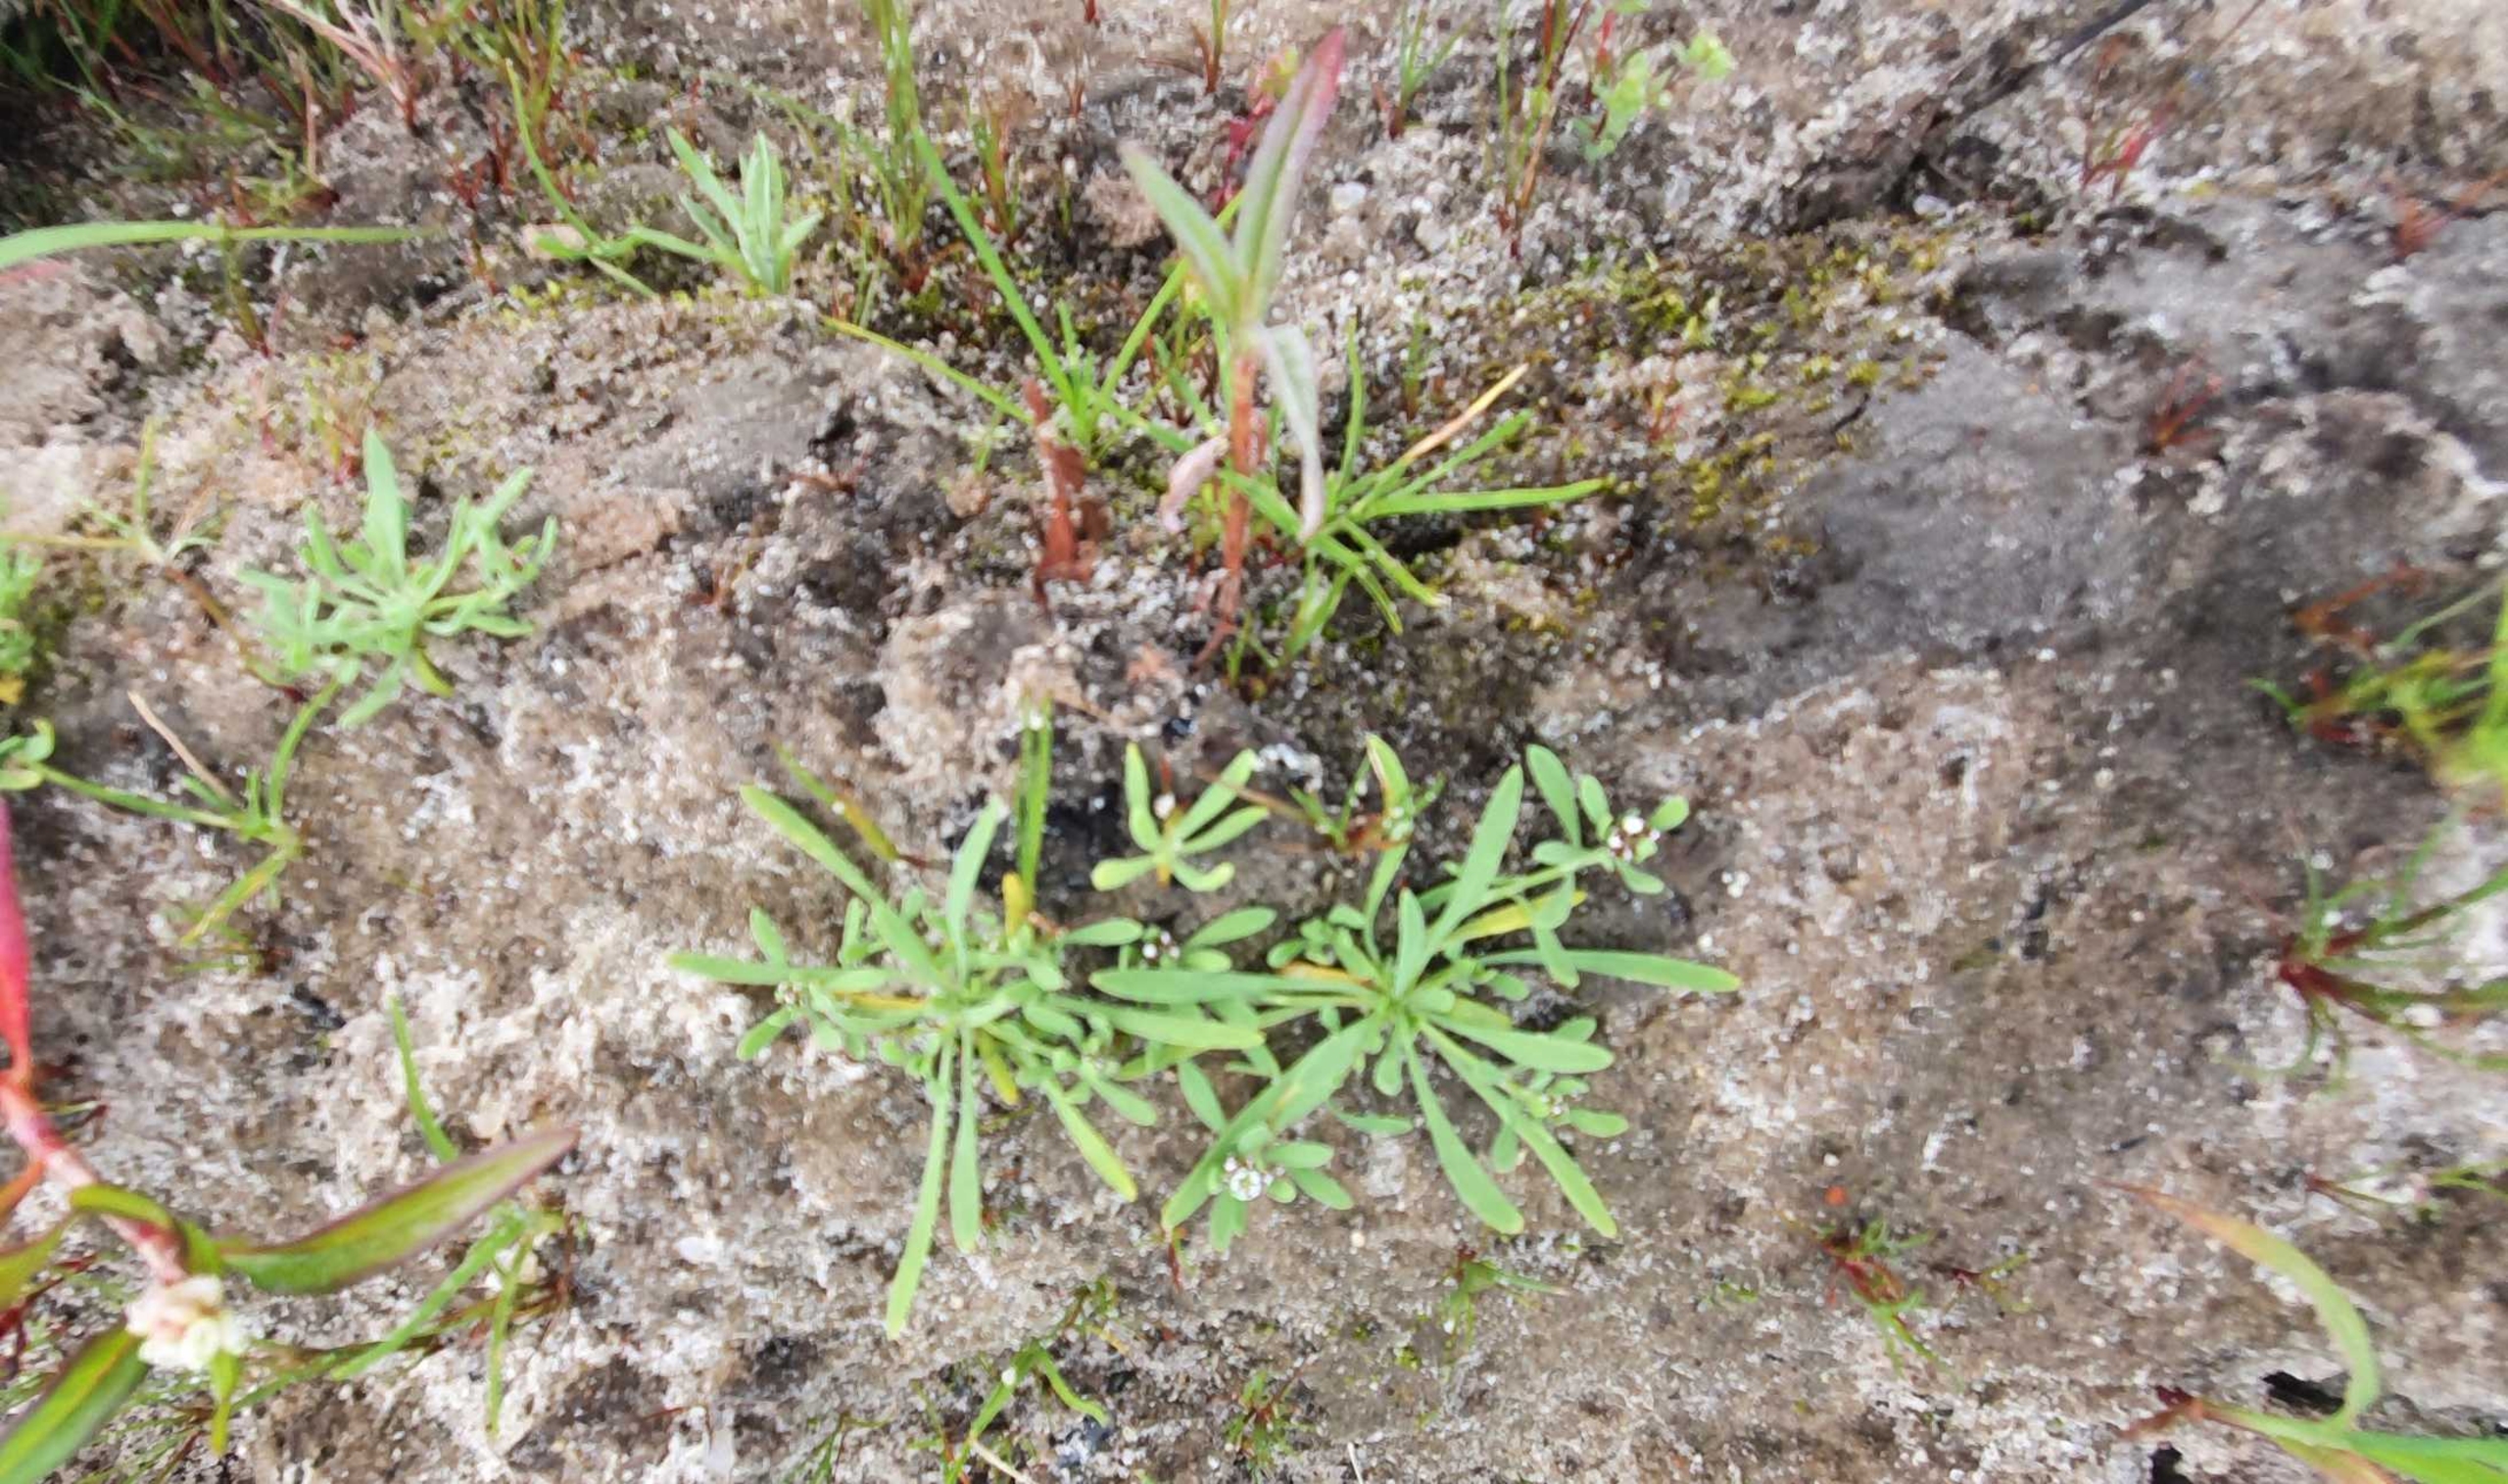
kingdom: Plantae
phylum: Tracheophyta
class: Magnoliopsida
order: Caryophyllales
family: Caryophyllaceae
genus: Corrigiola
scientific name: Corrigiola litoralis
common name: Skorem
